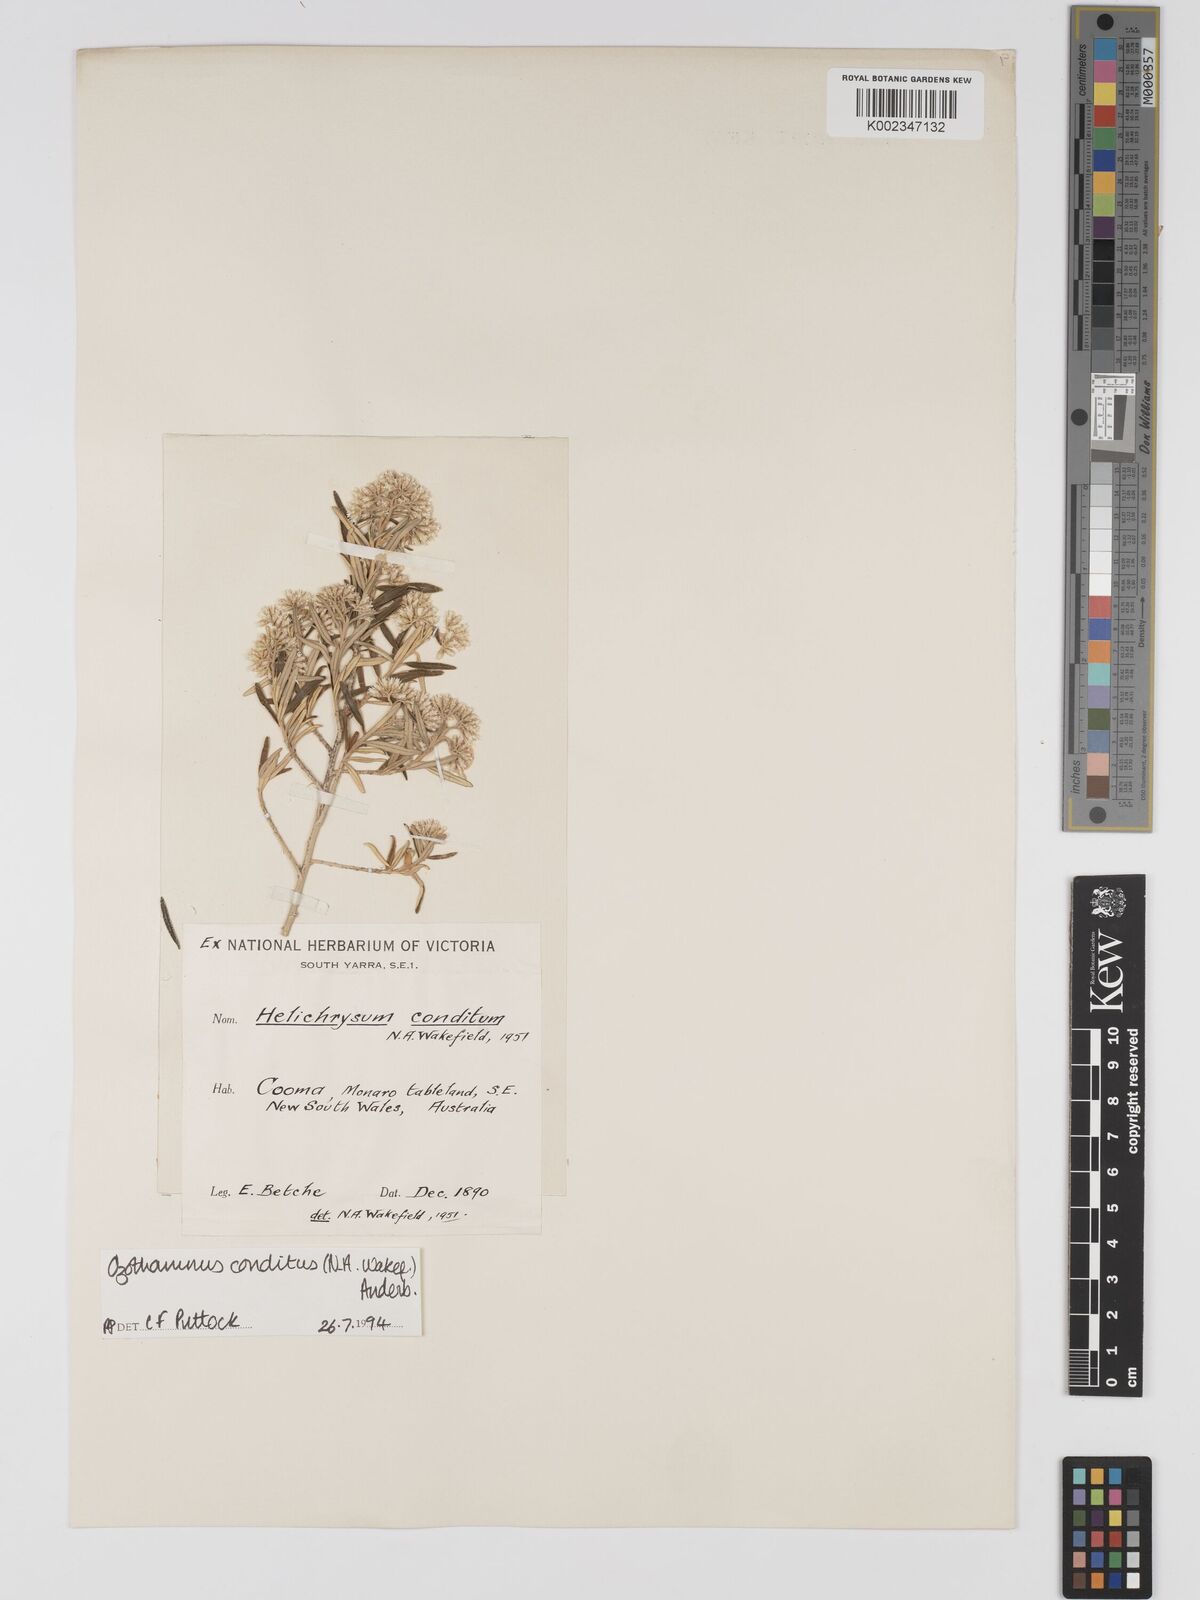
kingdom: Plantae
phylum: Tracheophyta
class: Magnoliopsida
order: Asterales
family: Asteraceae
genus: Ozothamnus
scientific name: Ozothamnus conditus
